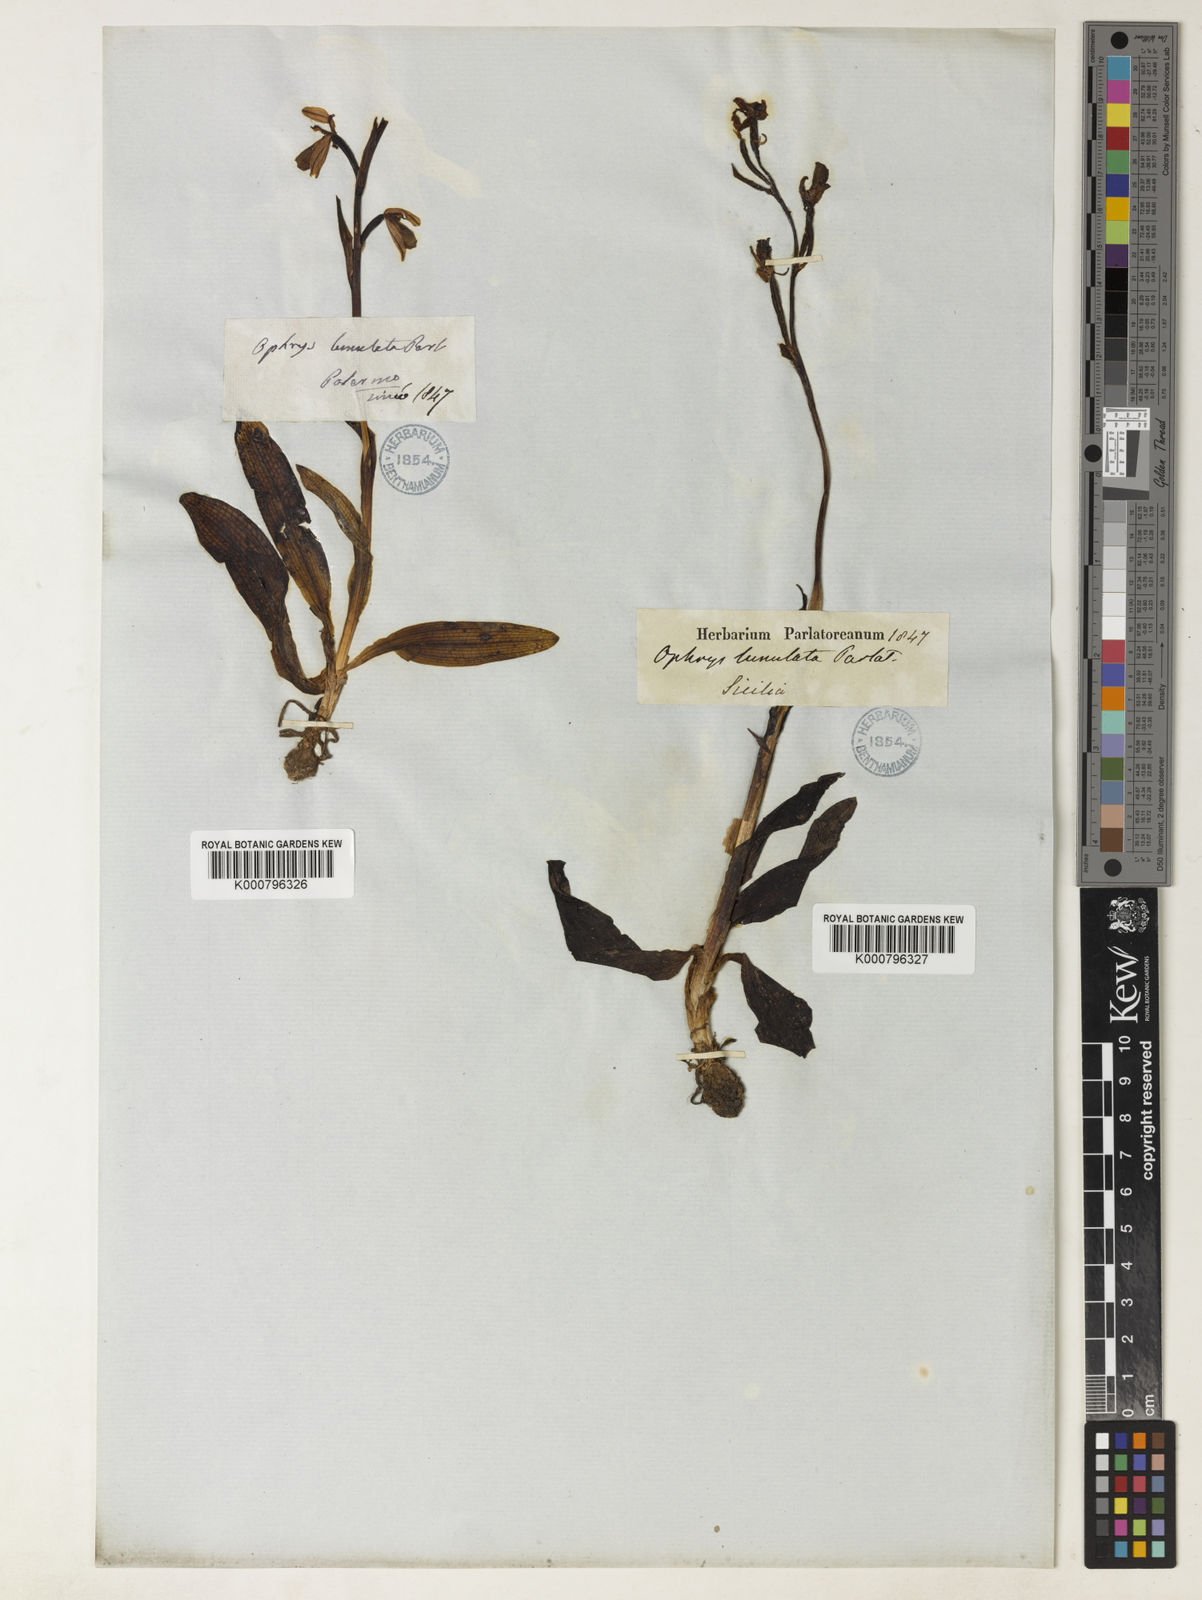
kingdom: Plantae
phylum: Tracheophyta
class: Liliopsida
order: Asparagales
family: Orchidaceae
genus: Ophrys
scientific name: Ophrys lunulata
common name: Lunulate ophrys
